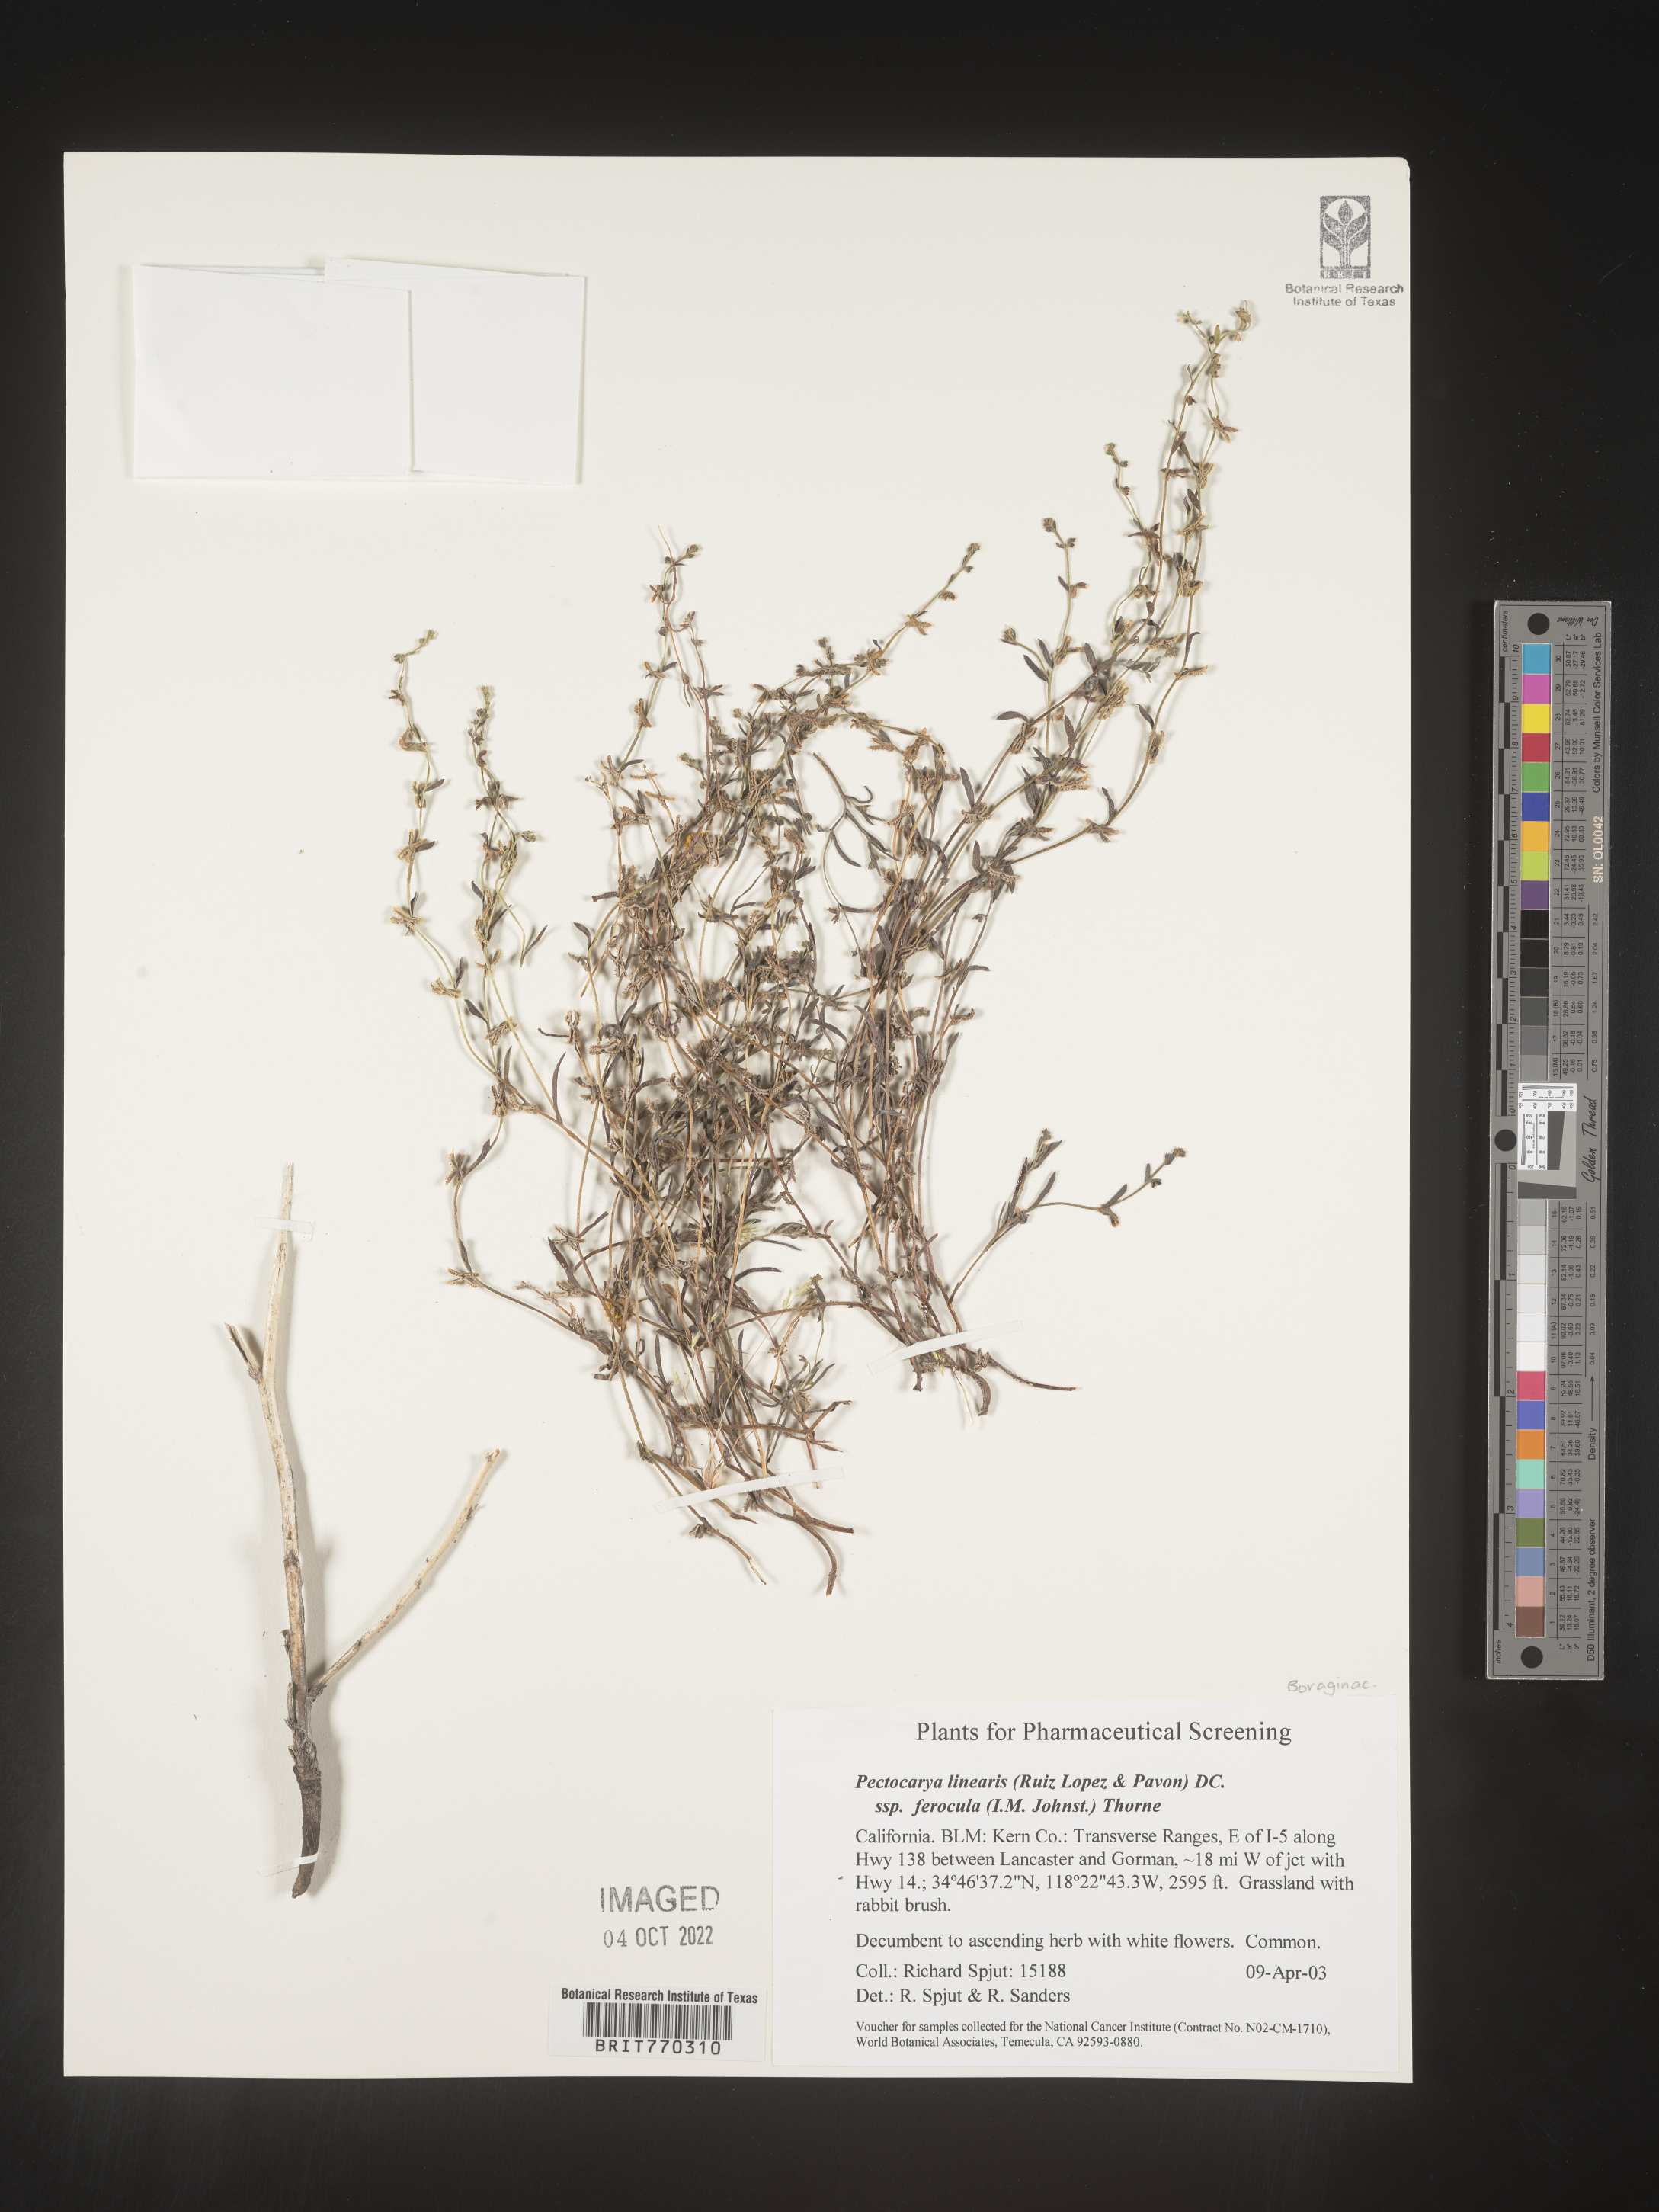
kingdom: Plantae
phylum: Tracheophyta
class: Magnoliopsida
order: Boraginales
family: Boraginaceae
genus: Pectocarya
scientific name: Pectocarya
